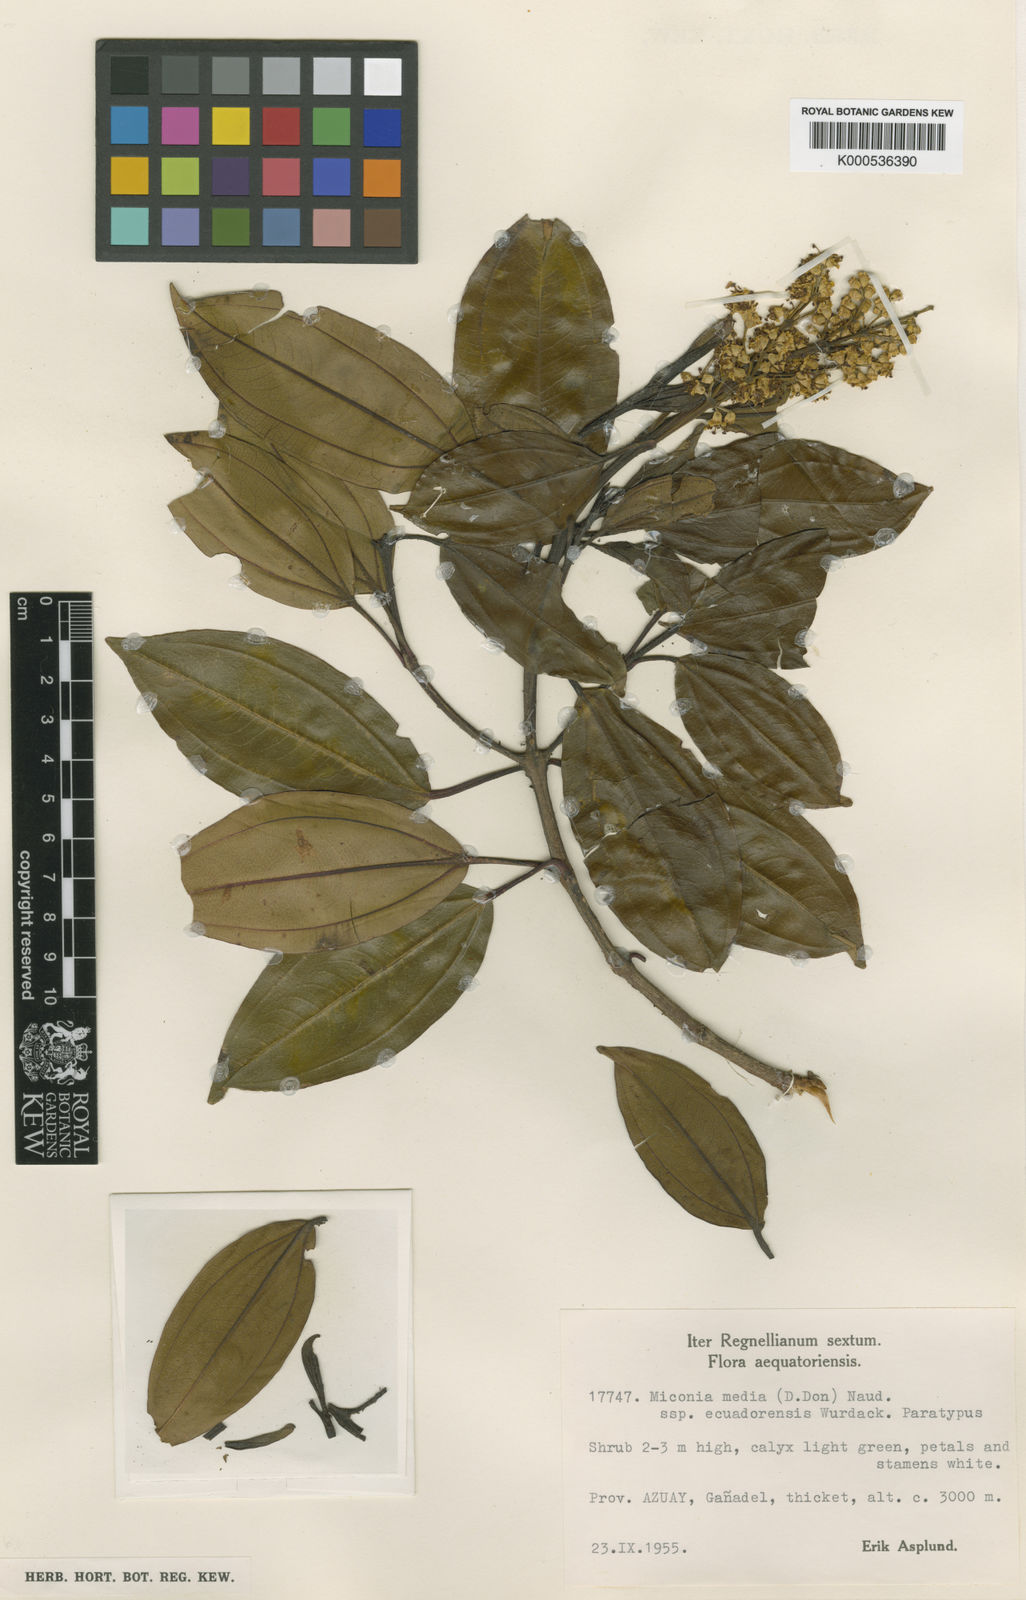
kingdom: Plantae
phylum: Tracheophyta
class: Magnoliopsida
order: Myrtales
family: Melastomataceae
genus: Miconia
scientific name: Miconia media
